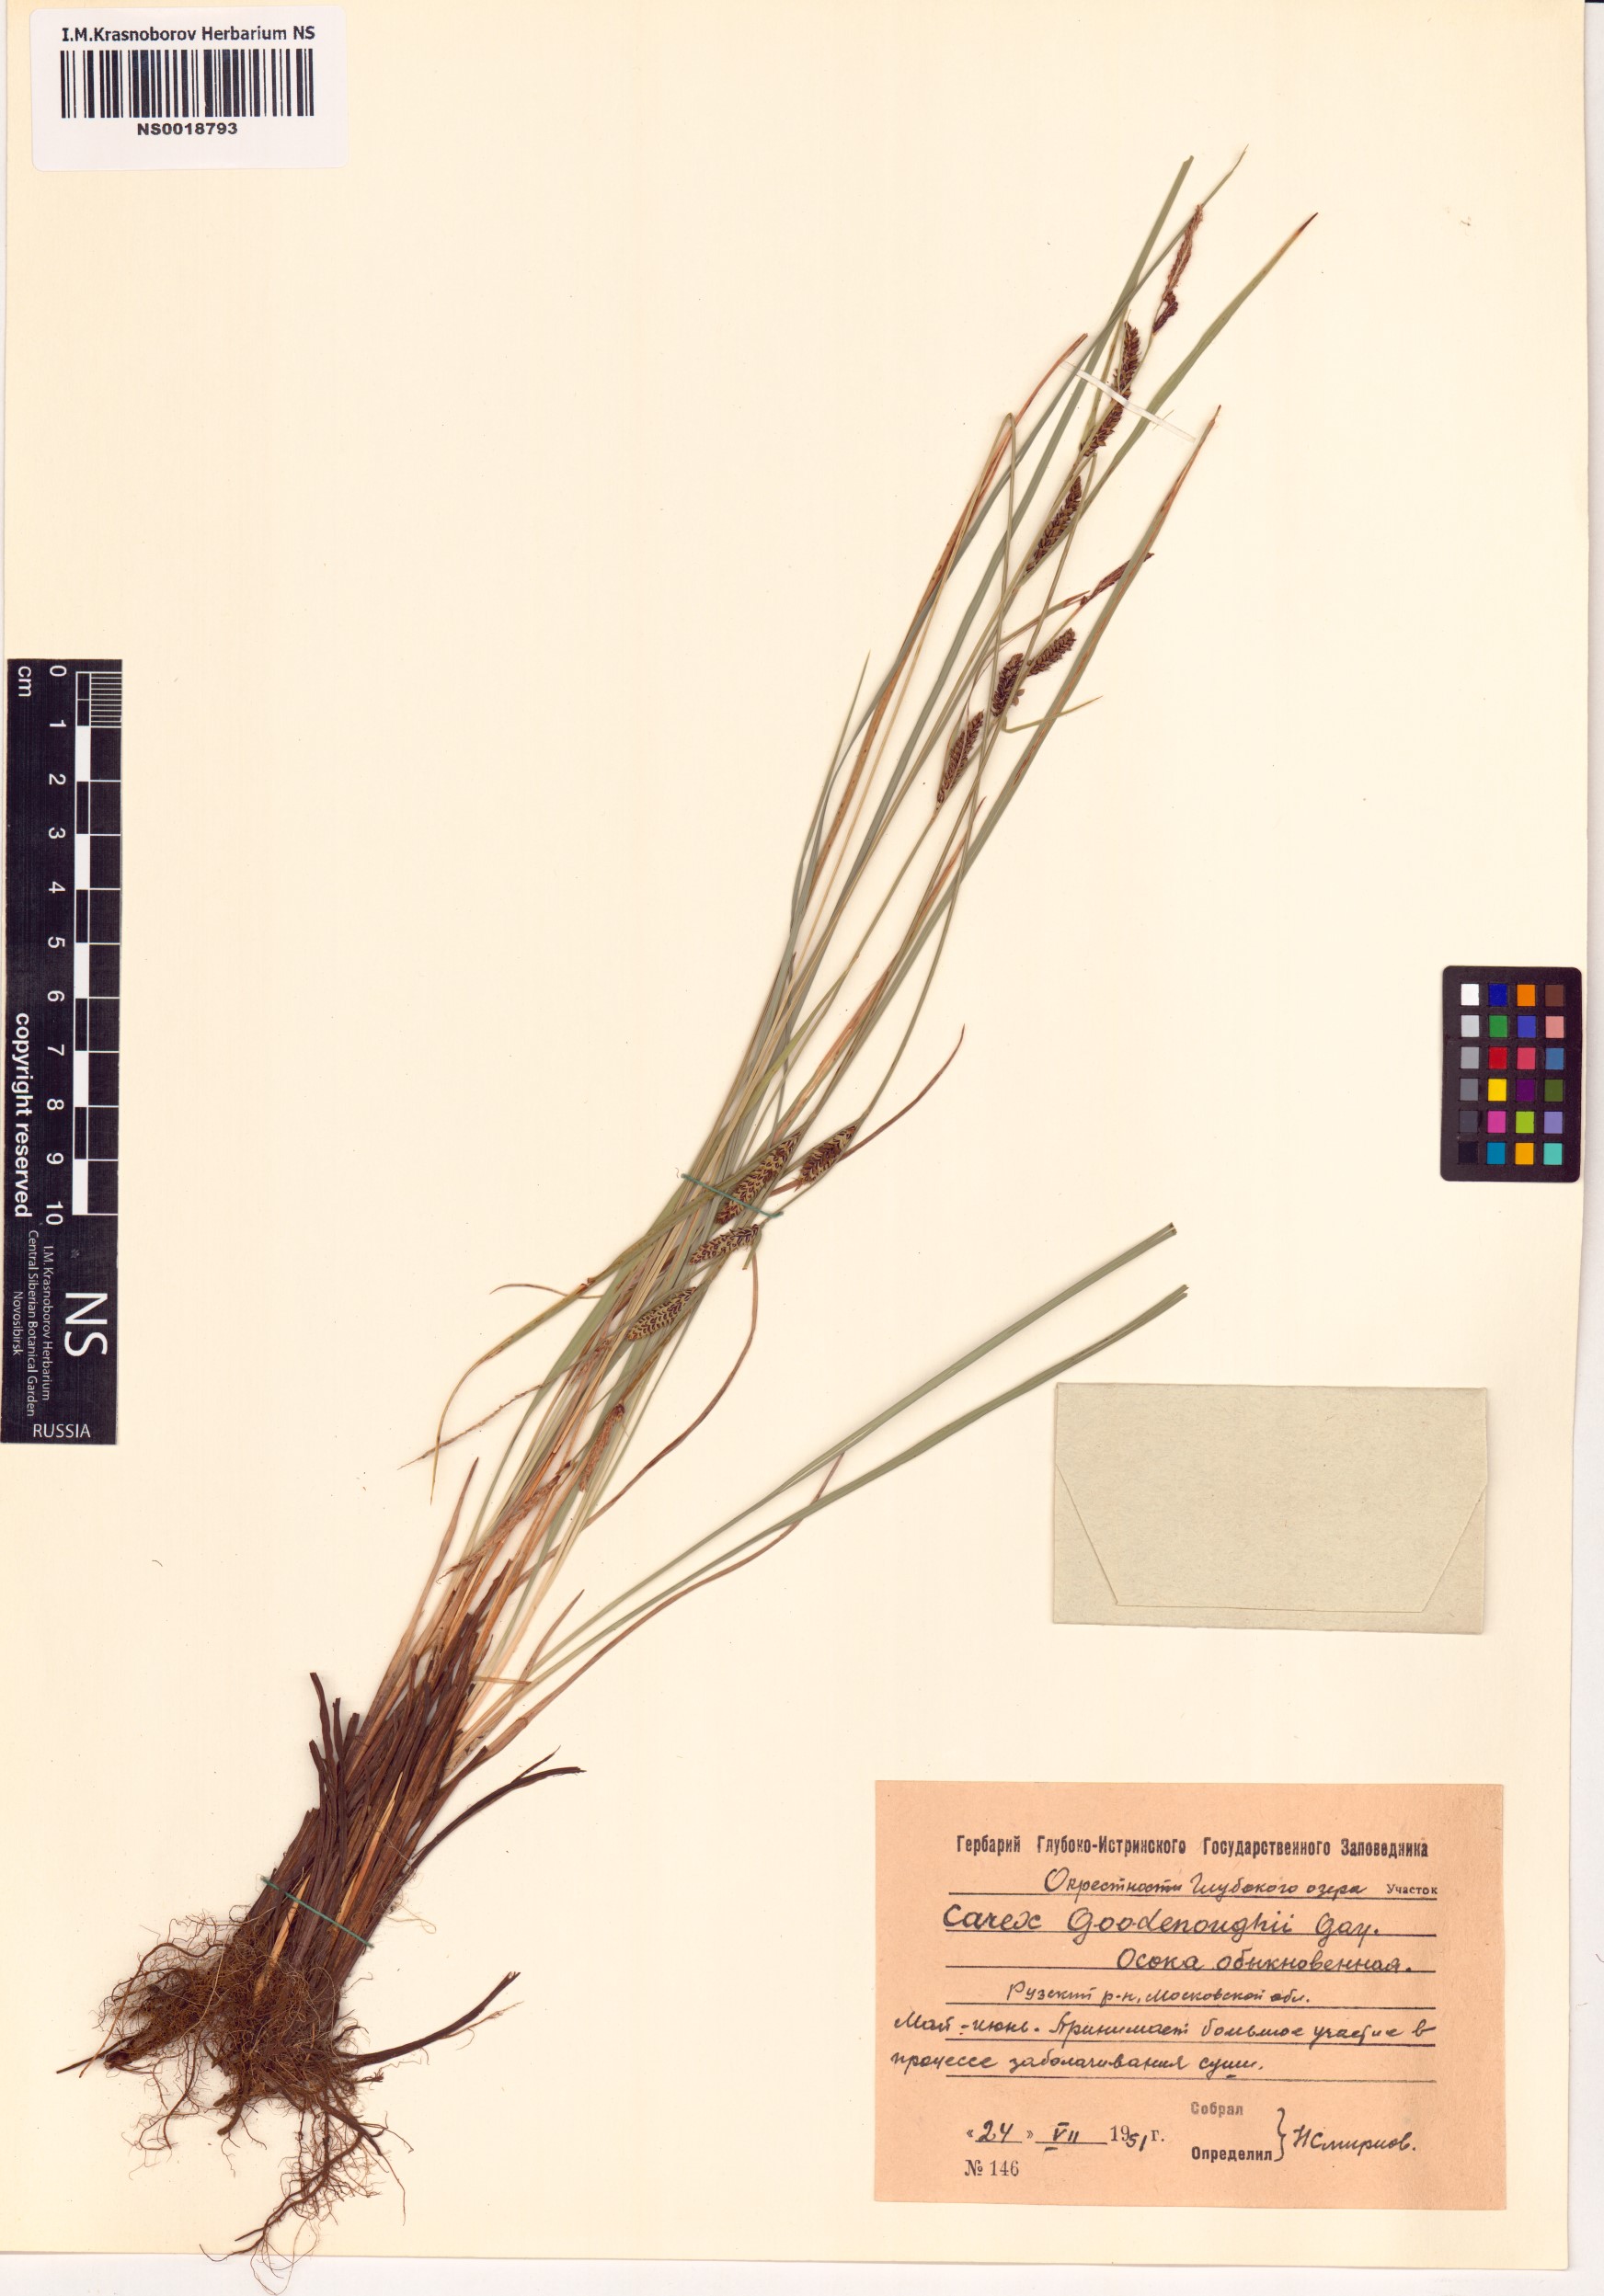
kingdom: Plantae
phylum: Tracheophyta
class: Liliopsida
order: Poales
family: Cyperaceae
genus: Carex
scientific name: Carex nigra
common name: Common sedge
